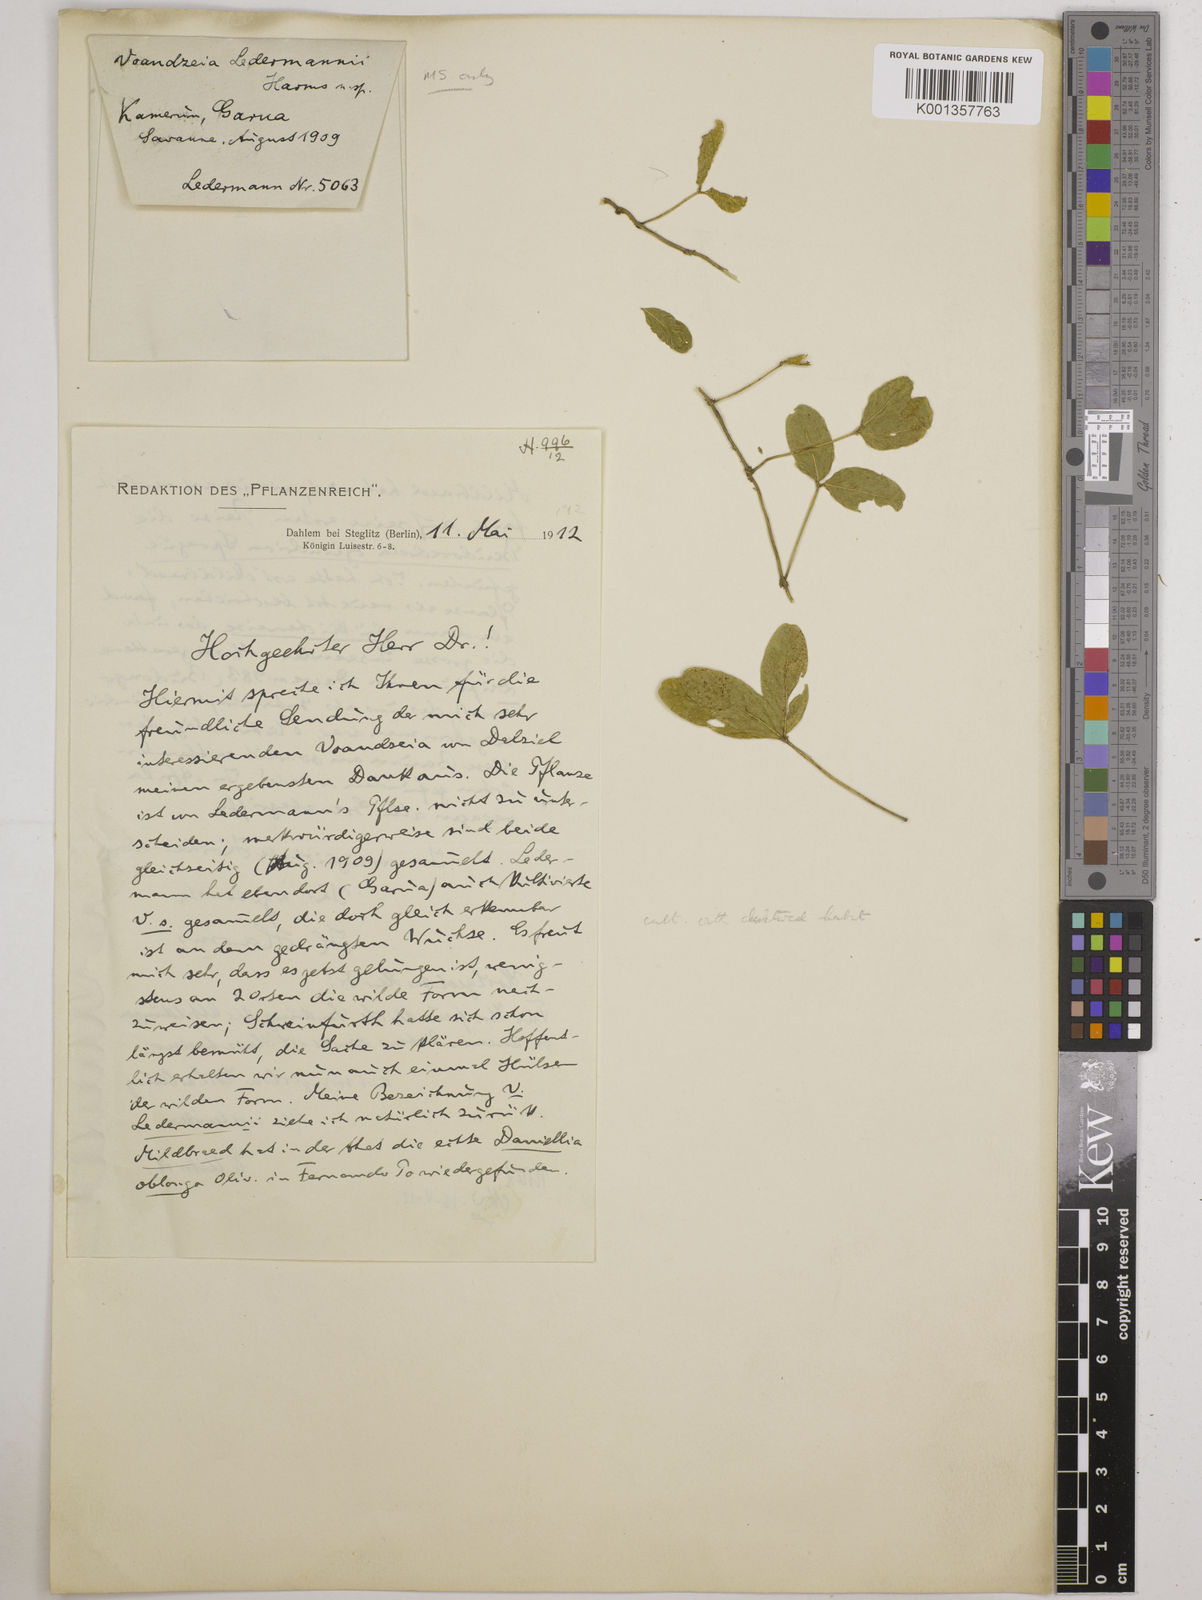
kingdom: Plantae
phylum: Tracheophyta
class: Magnoliopsida
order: Fabales
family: Fabaceae
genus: Vigna
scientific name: Vigna subterranea
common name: Bambara groundnut
